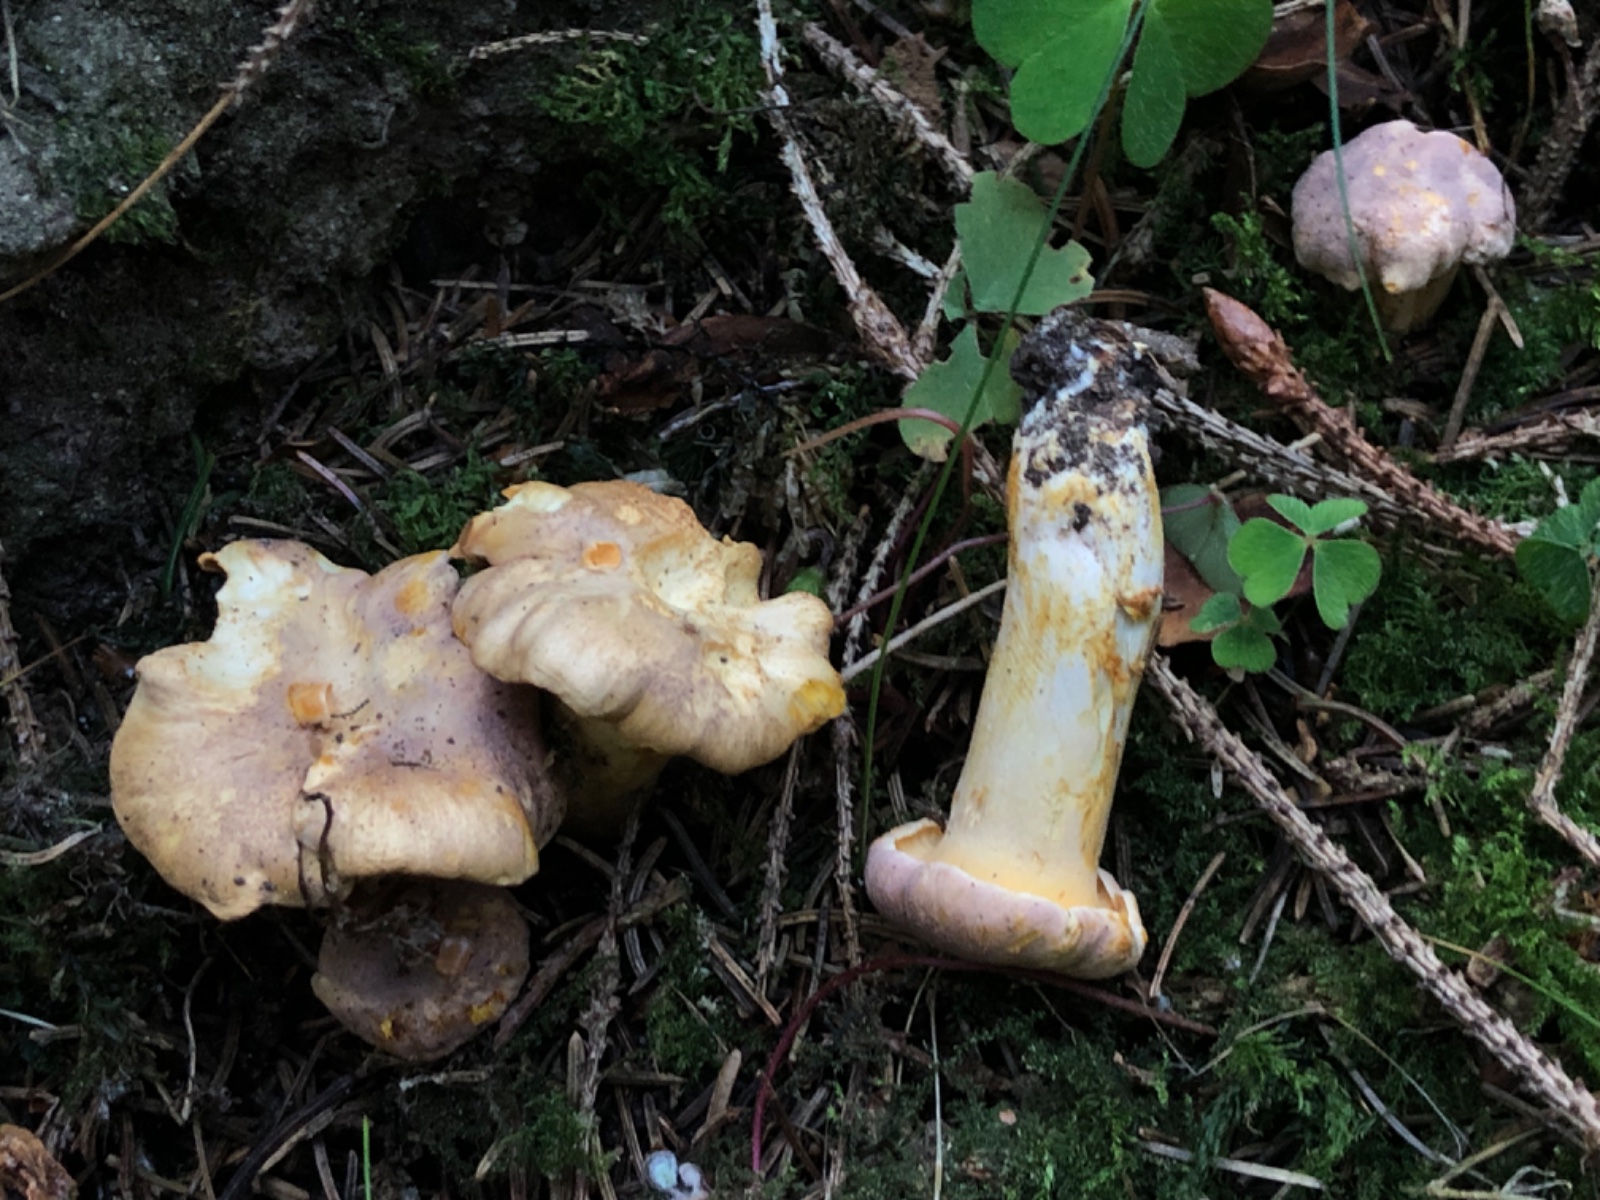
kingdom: Fungi
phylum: Basidiomycota
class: Agaricomycetes
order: Cantharellales
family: Hydnaceae
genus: Cantharellus
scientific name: Cantharellus amethysteus
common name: ametyst-kantarel
